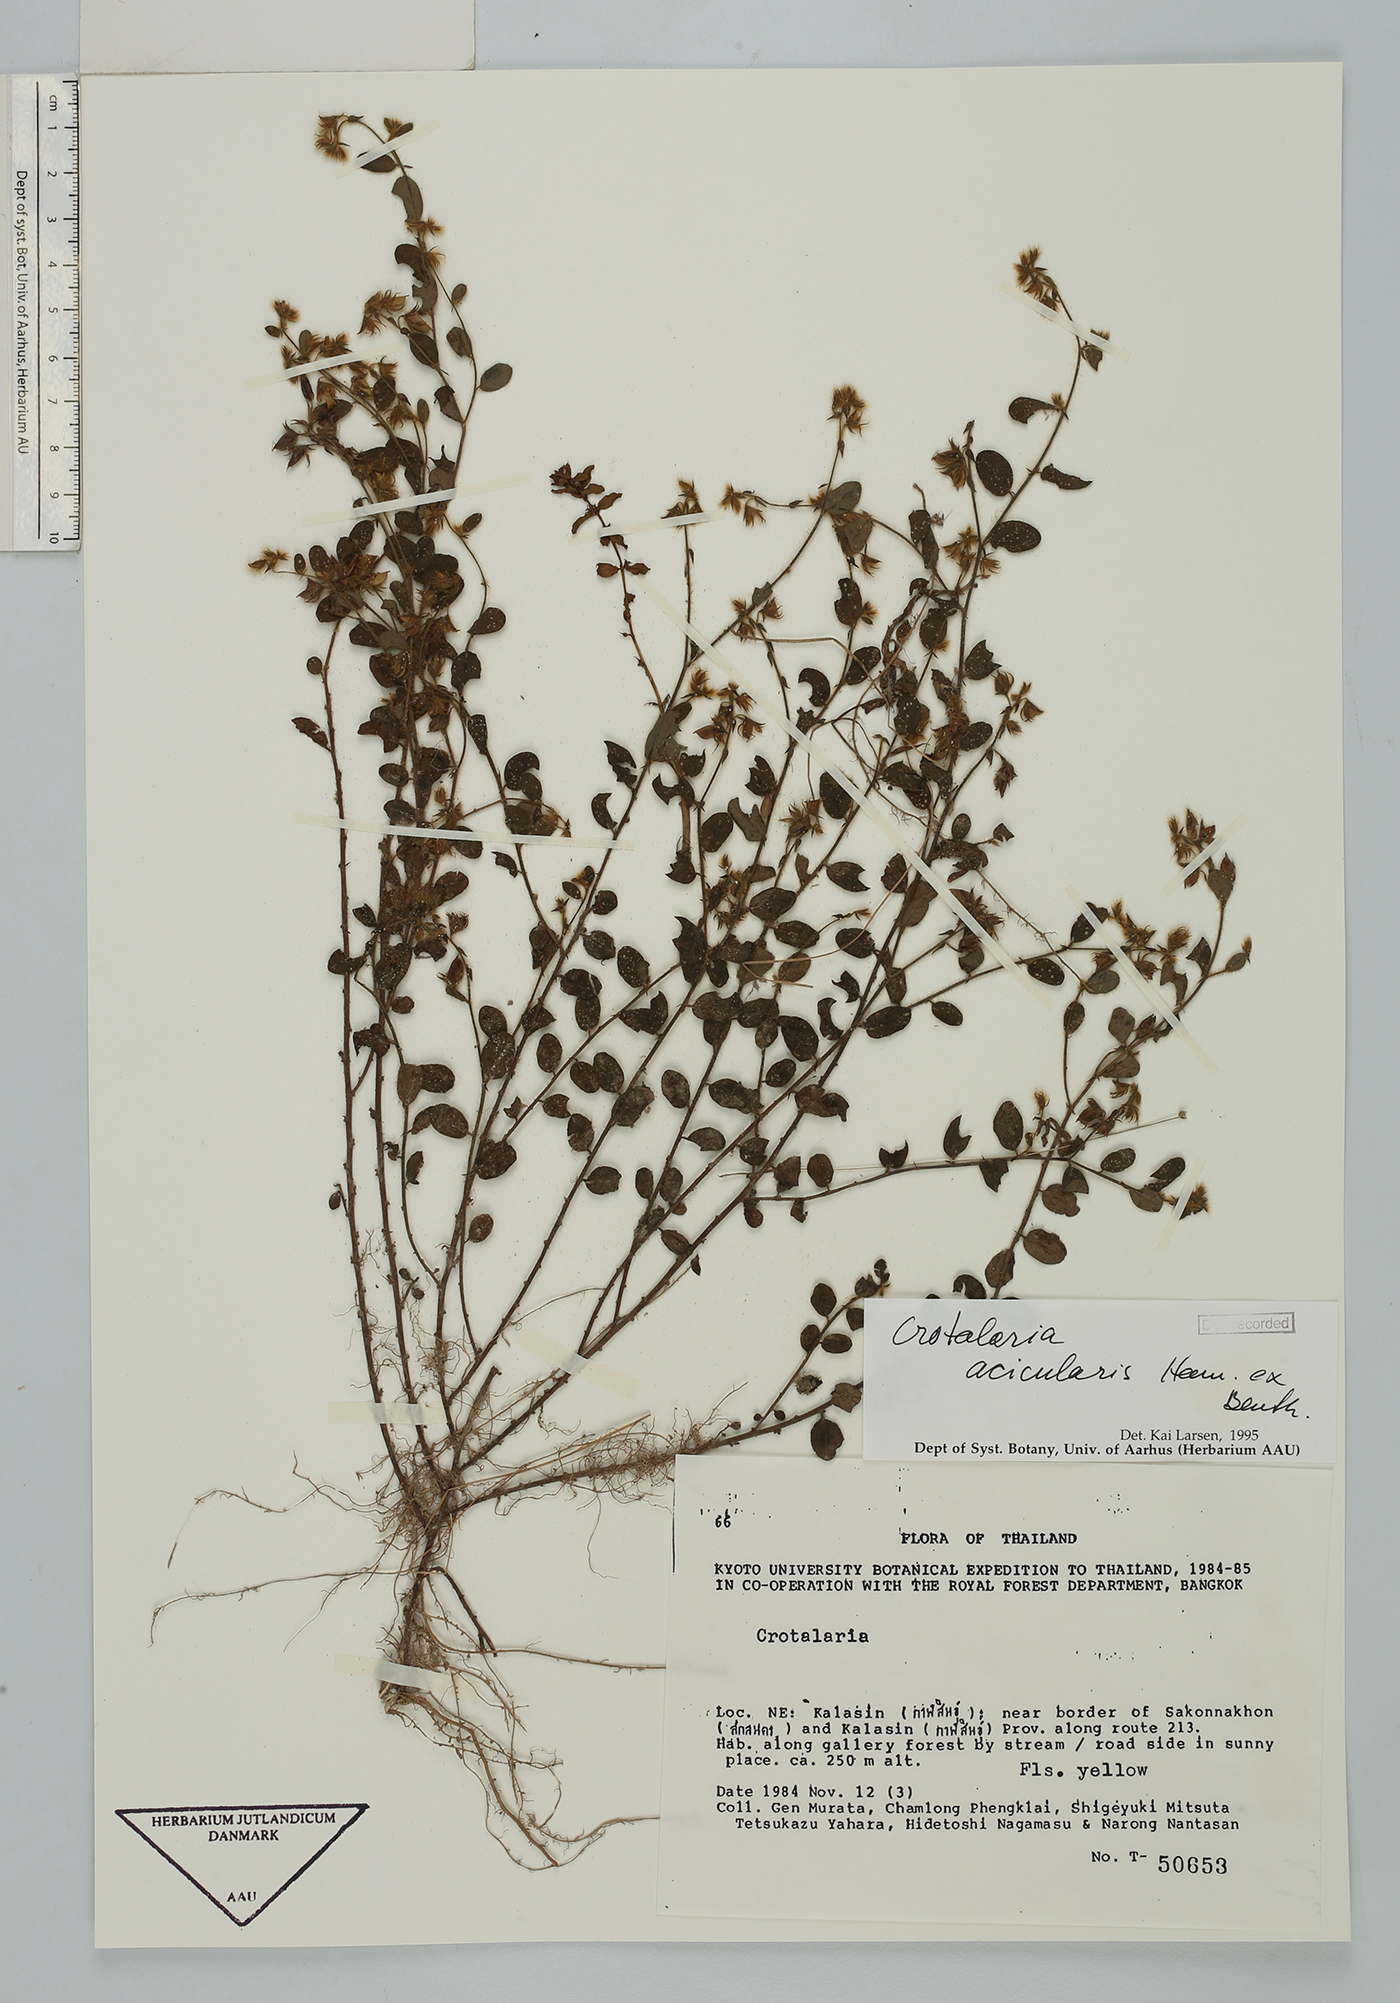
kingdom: Plantae
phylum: Tracheophyta
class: Magnoliopsida
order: Fabales
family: Fabaceae
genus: Crotalaria
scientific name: Crotalaria acicularis
